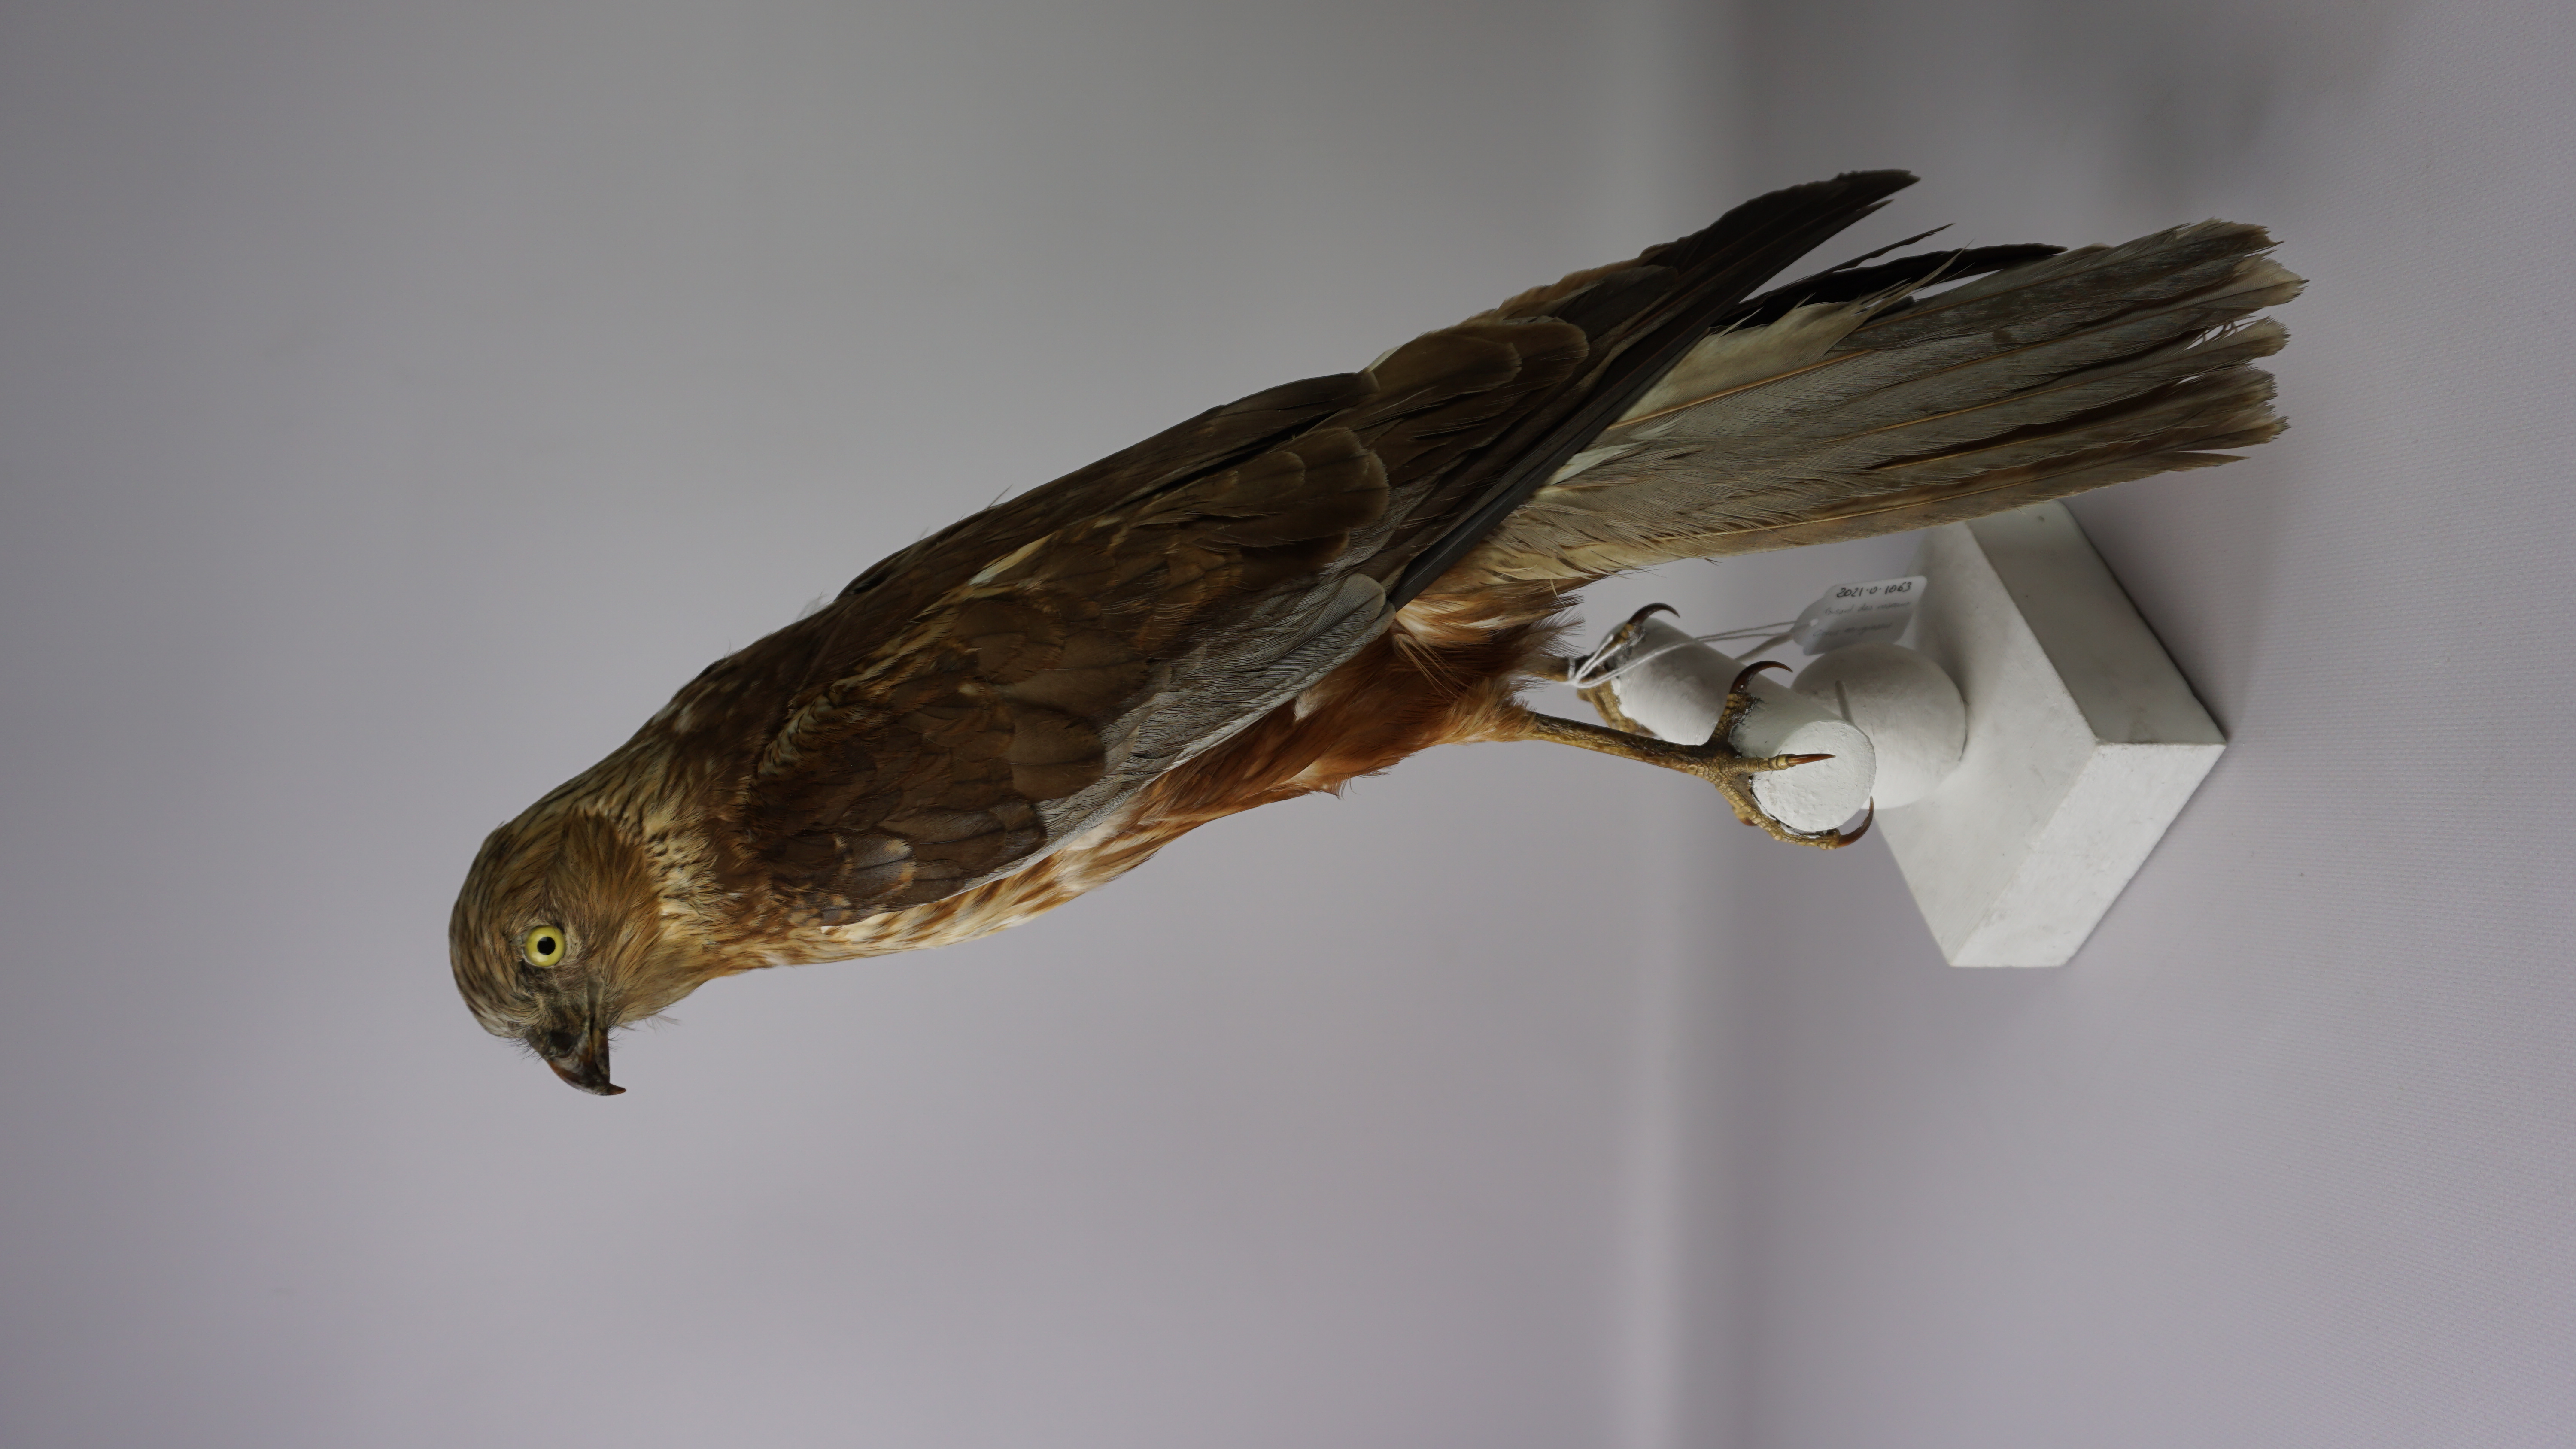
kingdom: Animalia
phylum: Chordata
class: Aves
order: Accipitriformes
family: Accipitridae
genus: Circus
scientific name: Circus aeruginosus
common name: Western marsh harrier
